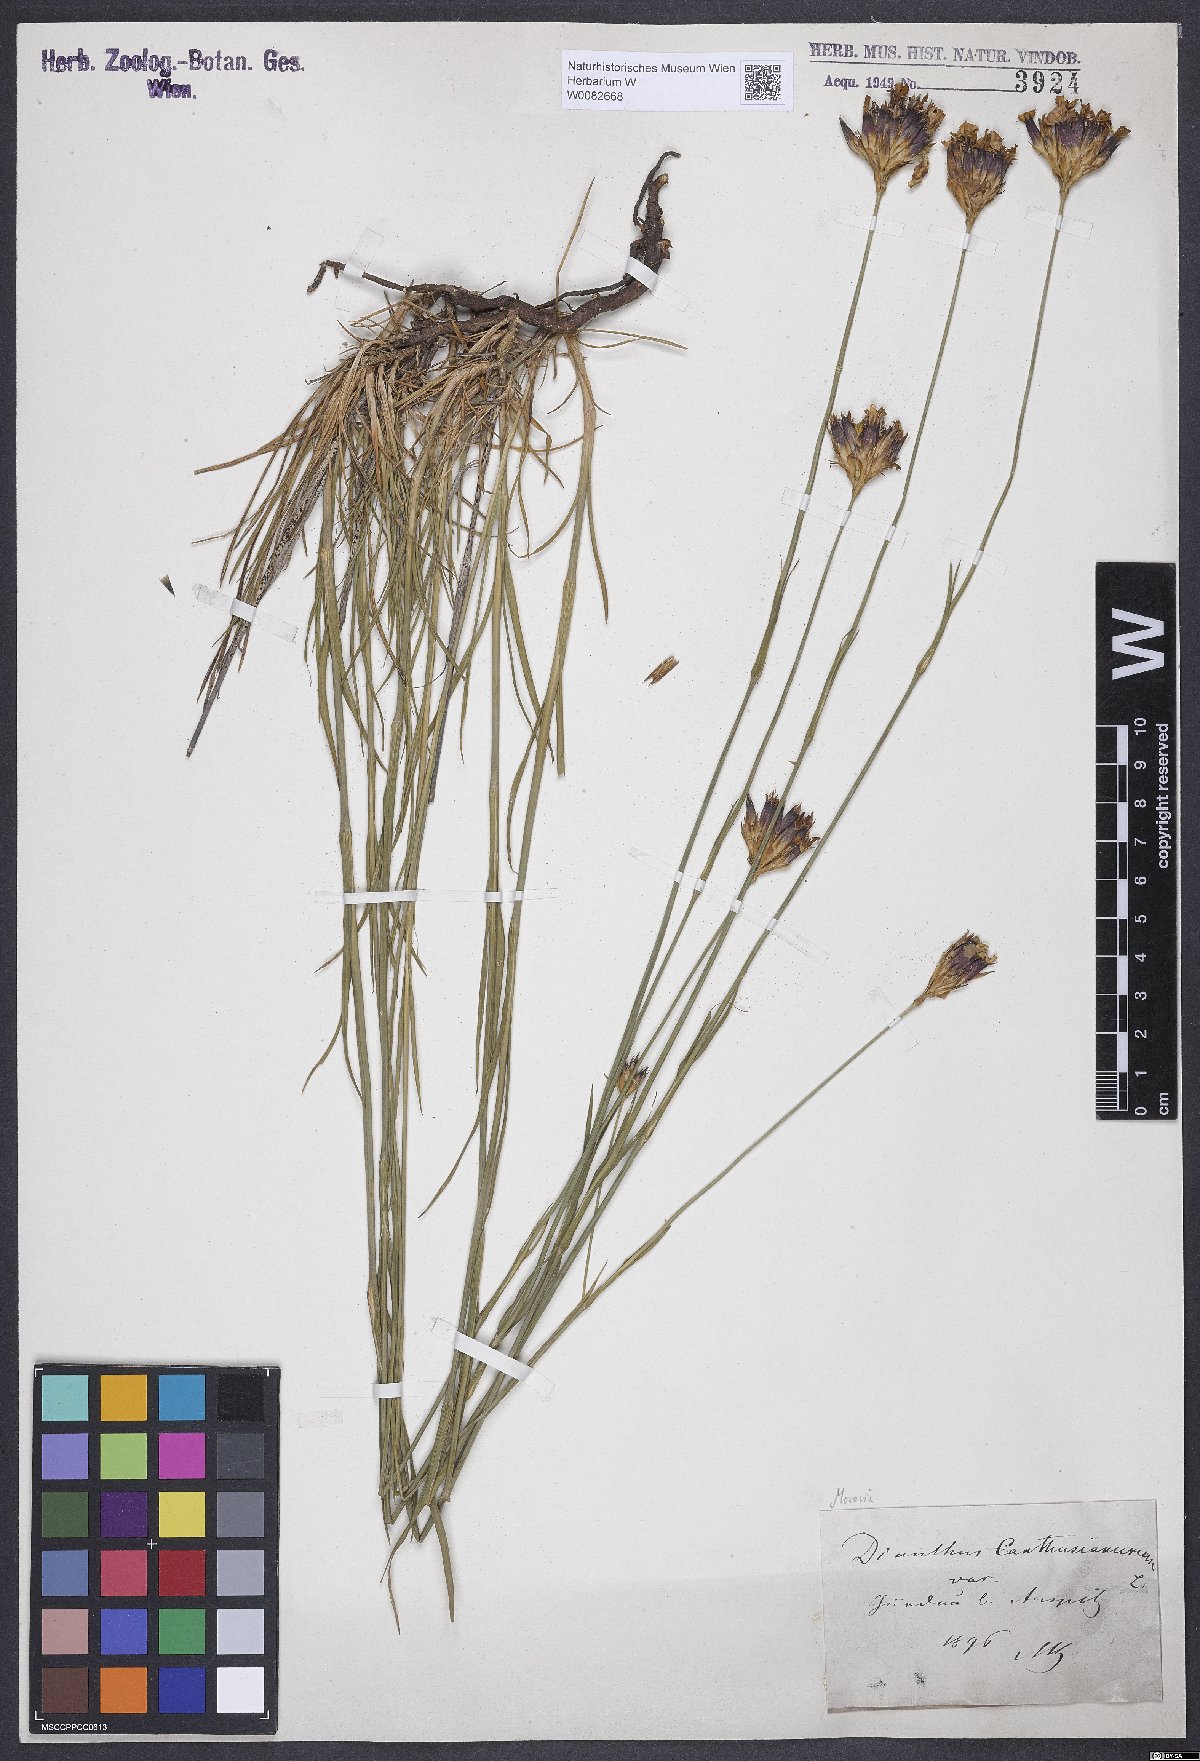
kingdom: Plantae
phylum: Tracheophyta
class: Magnoliopsida
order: Caryophyllales
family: Caryophyllaceae
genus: Dianthus
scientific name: Dianthus carthusianorum
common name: Carthusian pink
